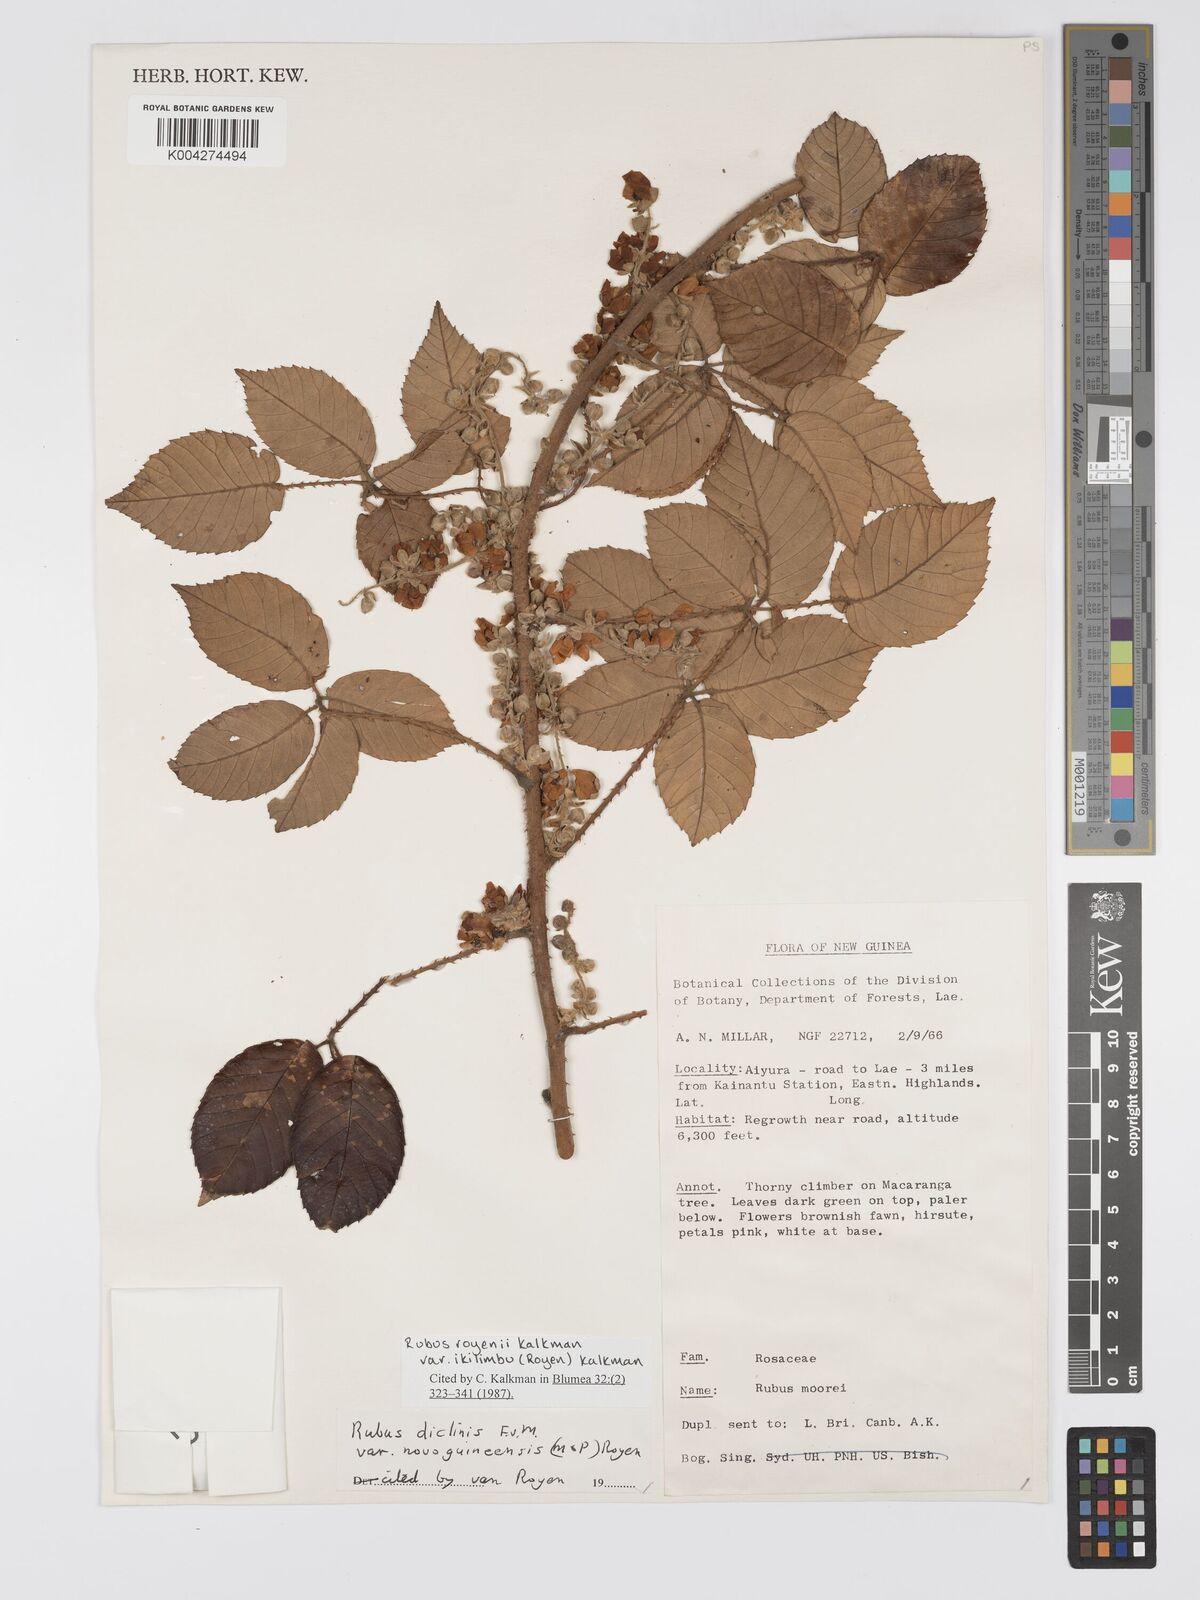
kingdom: Plantae
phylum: Tracheophyta
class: Magnoliopsida
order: Rosales
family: Rosaceae
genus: Rubus
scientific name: Rubus royenii
